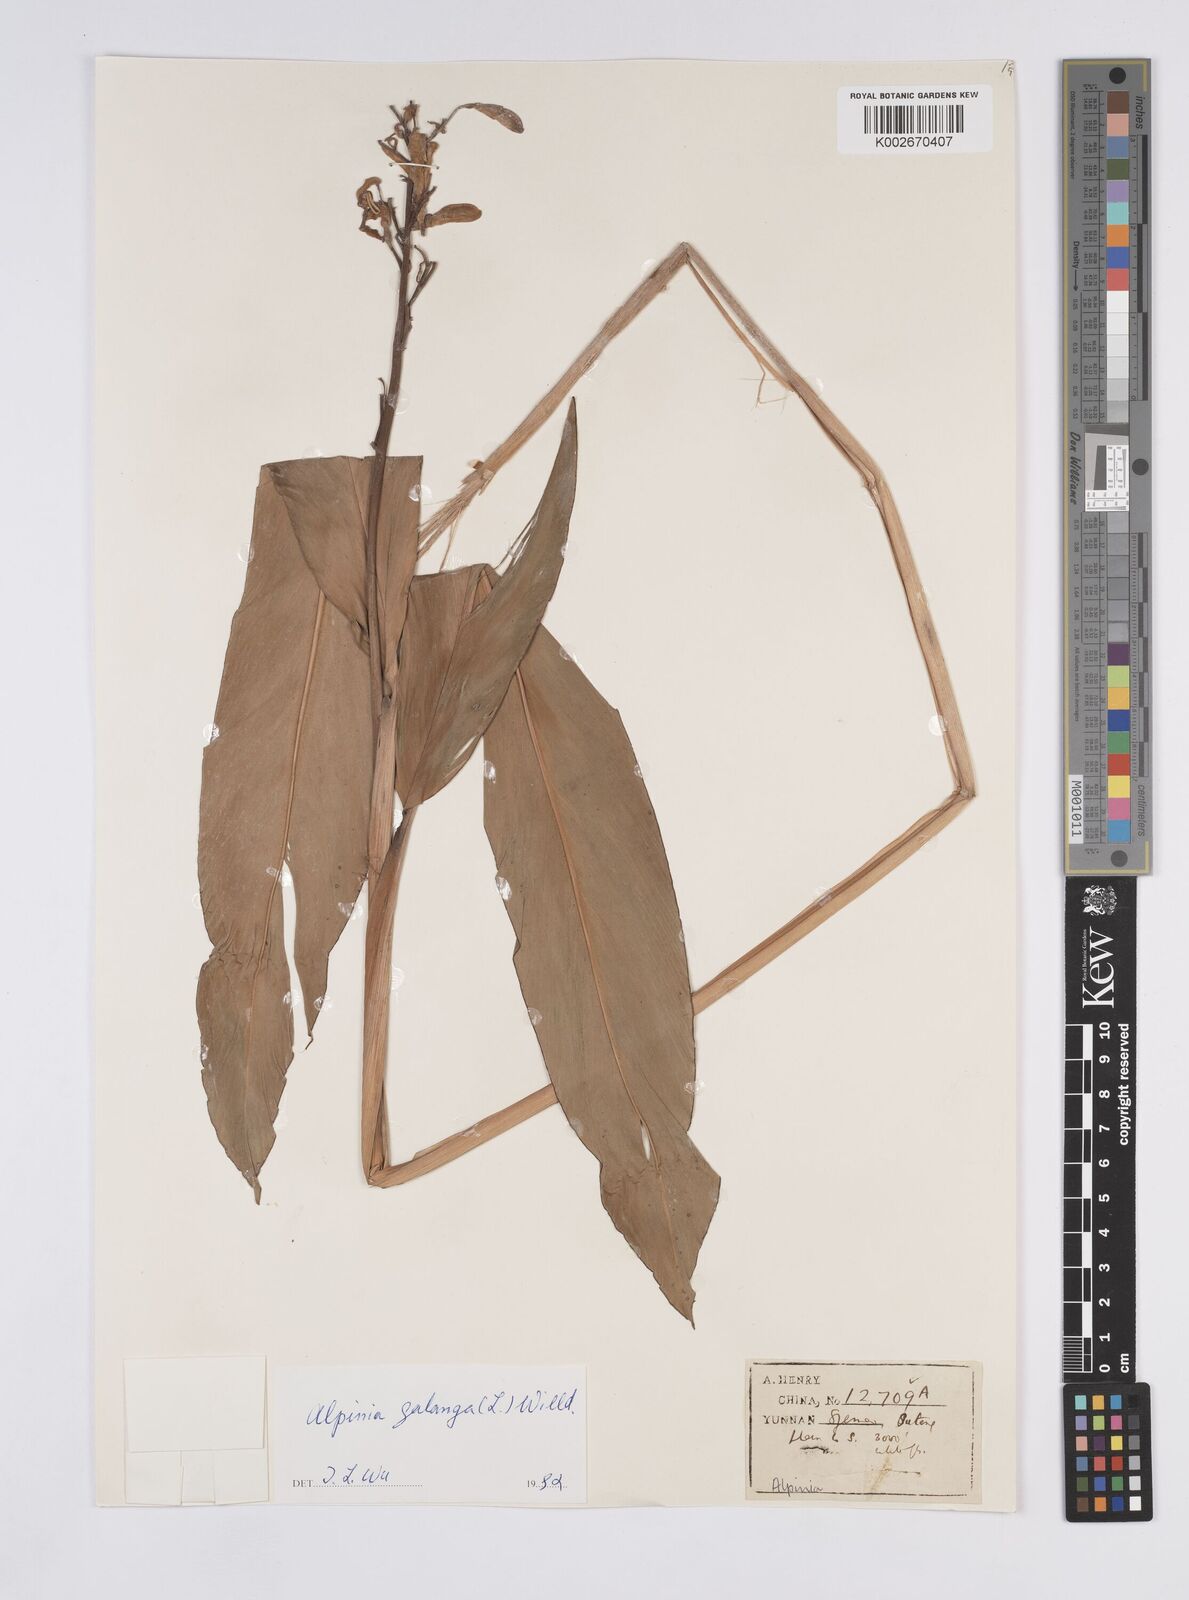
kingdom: Plantae
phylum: Tracheophyta
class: Liliopsida
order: Zingiberales
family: Zingiberaceae
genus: Alpinia
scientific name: Alpinia galanga
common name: Siamese-ginger
